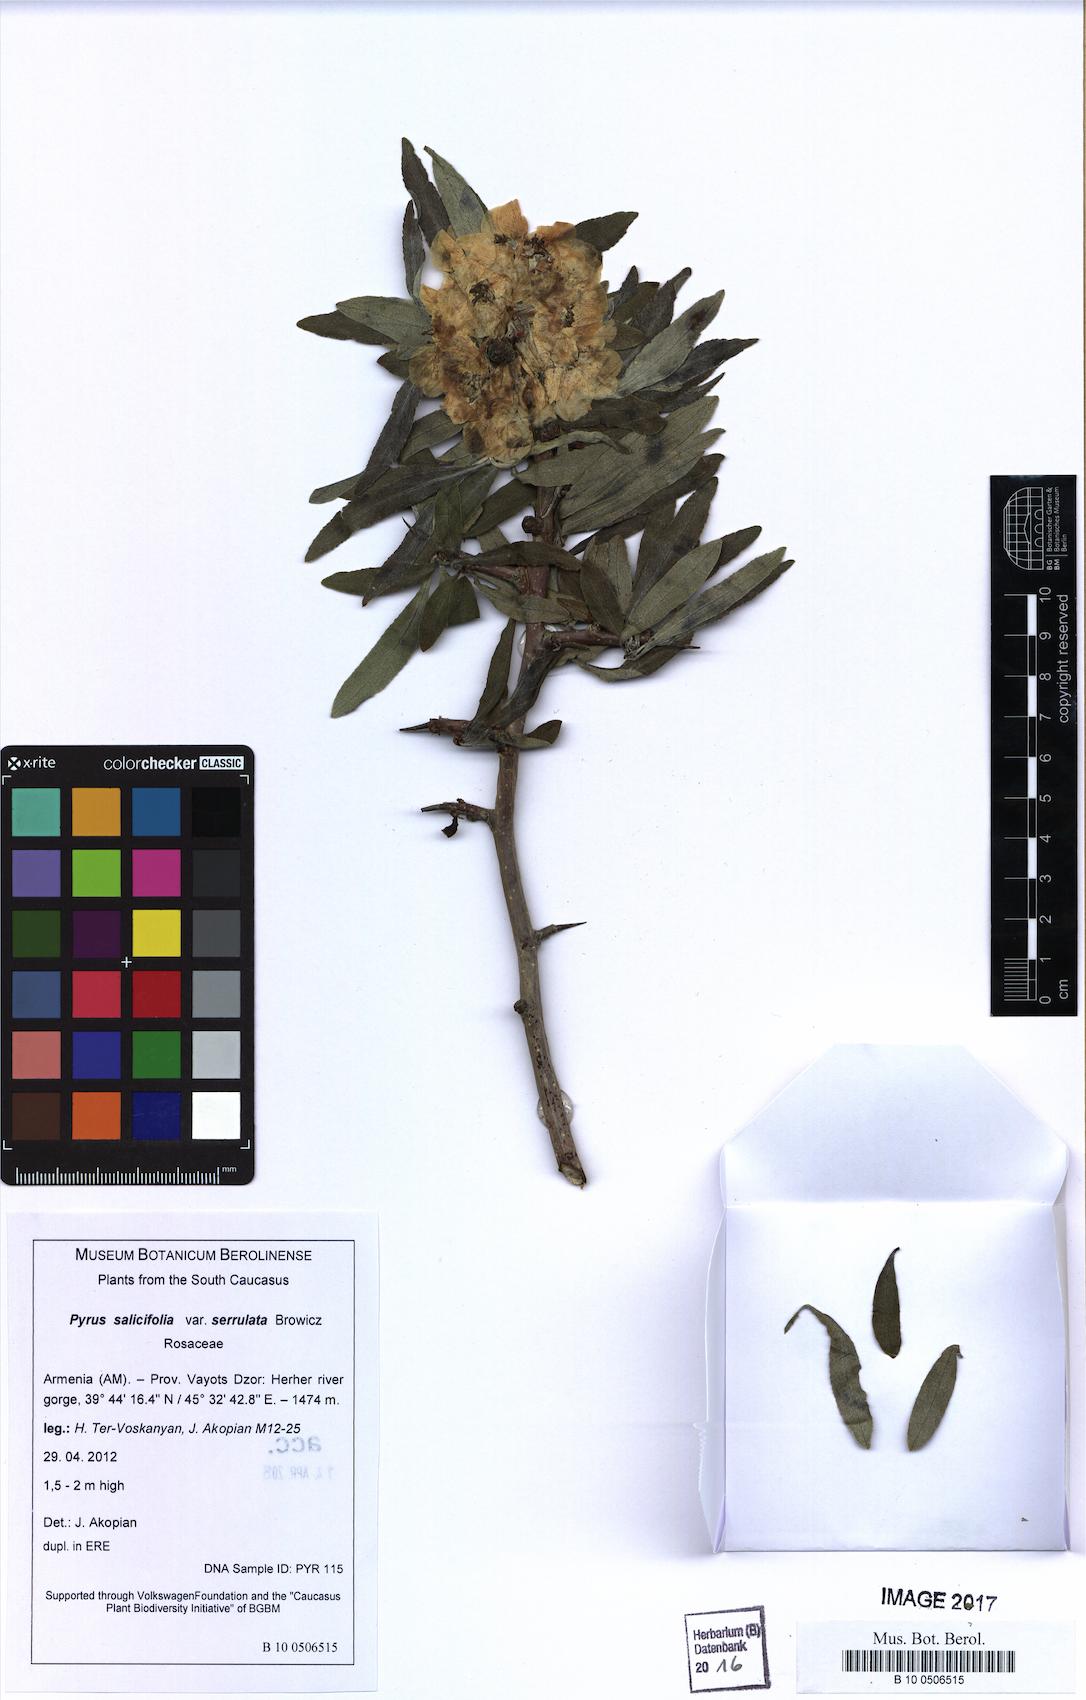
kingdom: Plantae
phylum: Tracheophyta
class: Magnoliopsida
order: Rosales
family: Rosaceae
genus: Pyrus
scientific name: Pyrus salicifolia
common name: Willow-leaved pear
